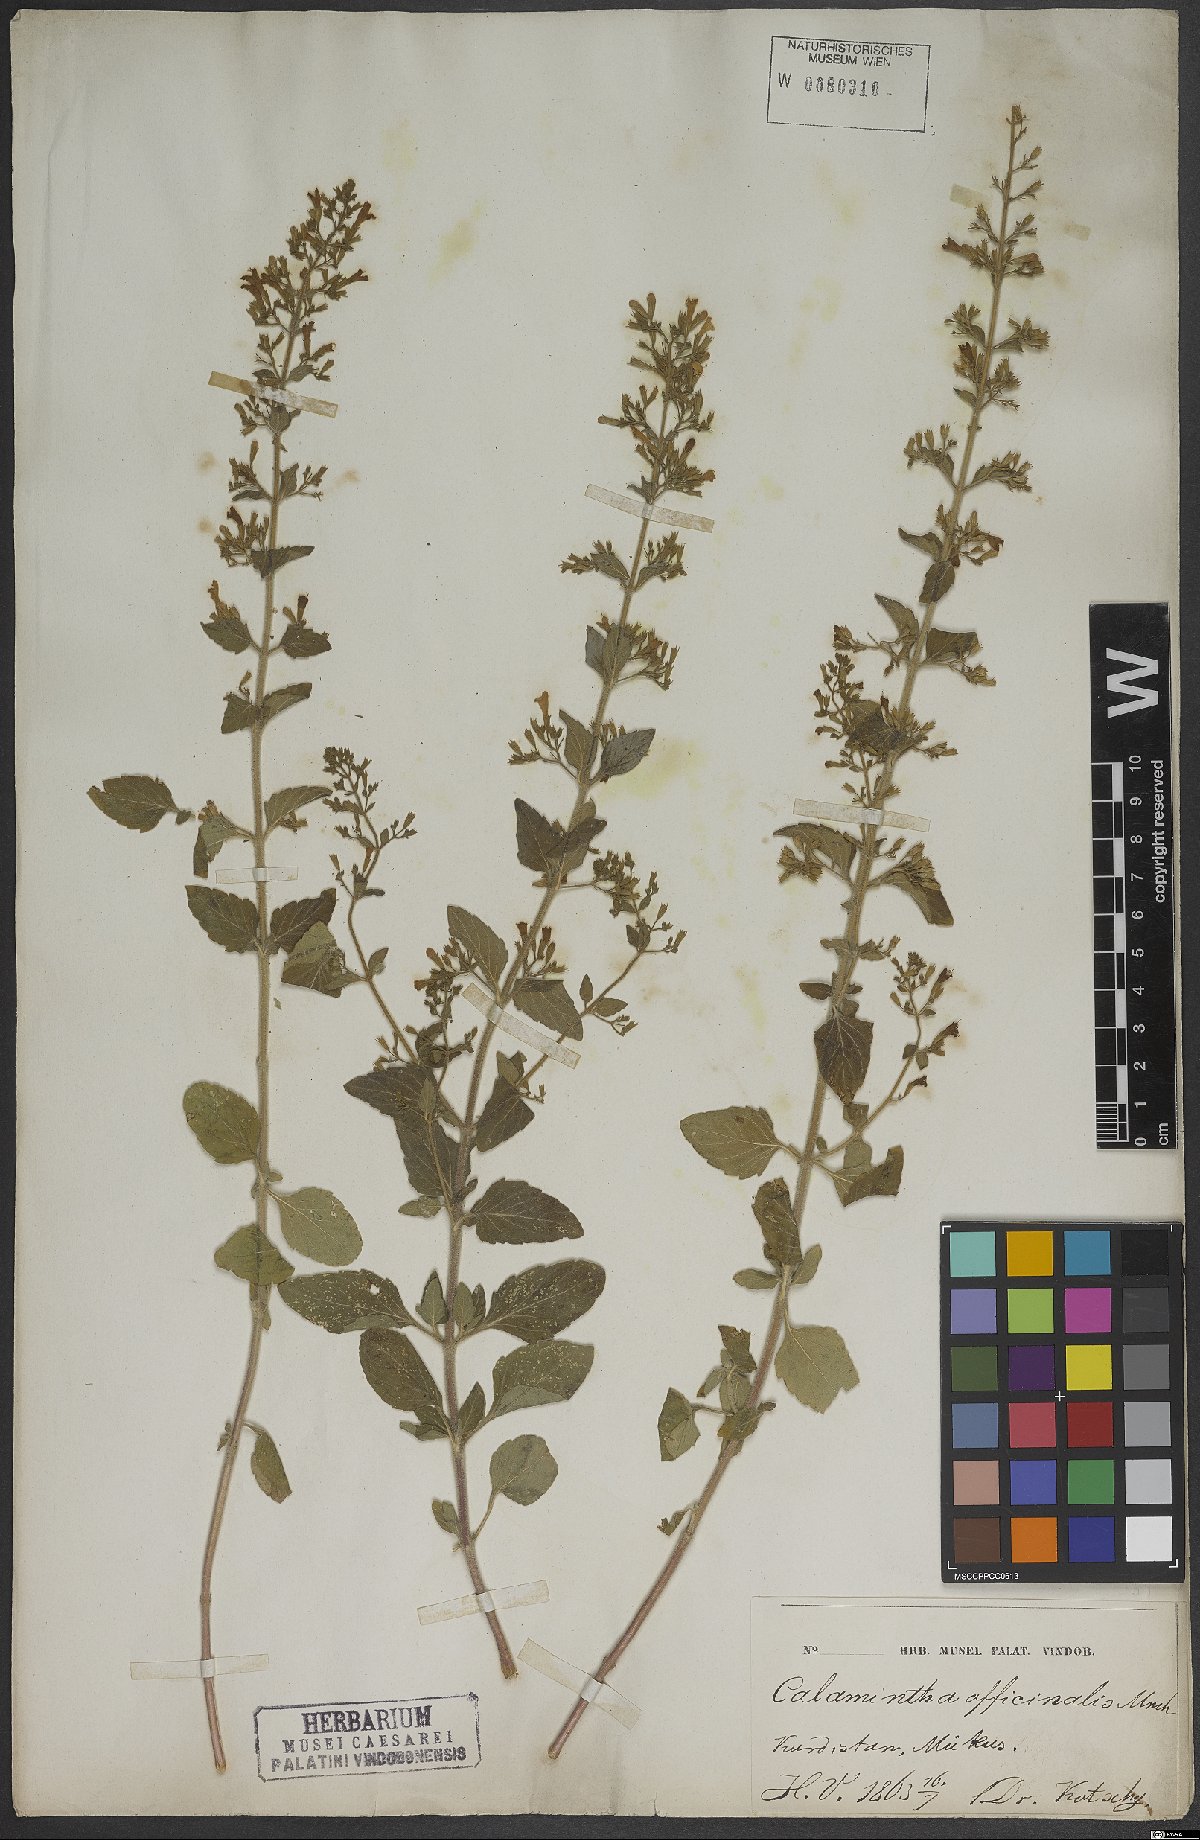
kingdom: Plantae
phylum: Tracheophyta
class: Magnoliopsida
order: Lamiales
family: Lamiaceae
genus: Clinopodium
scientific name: Clinopodium nepeta
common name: Lesser calamint
